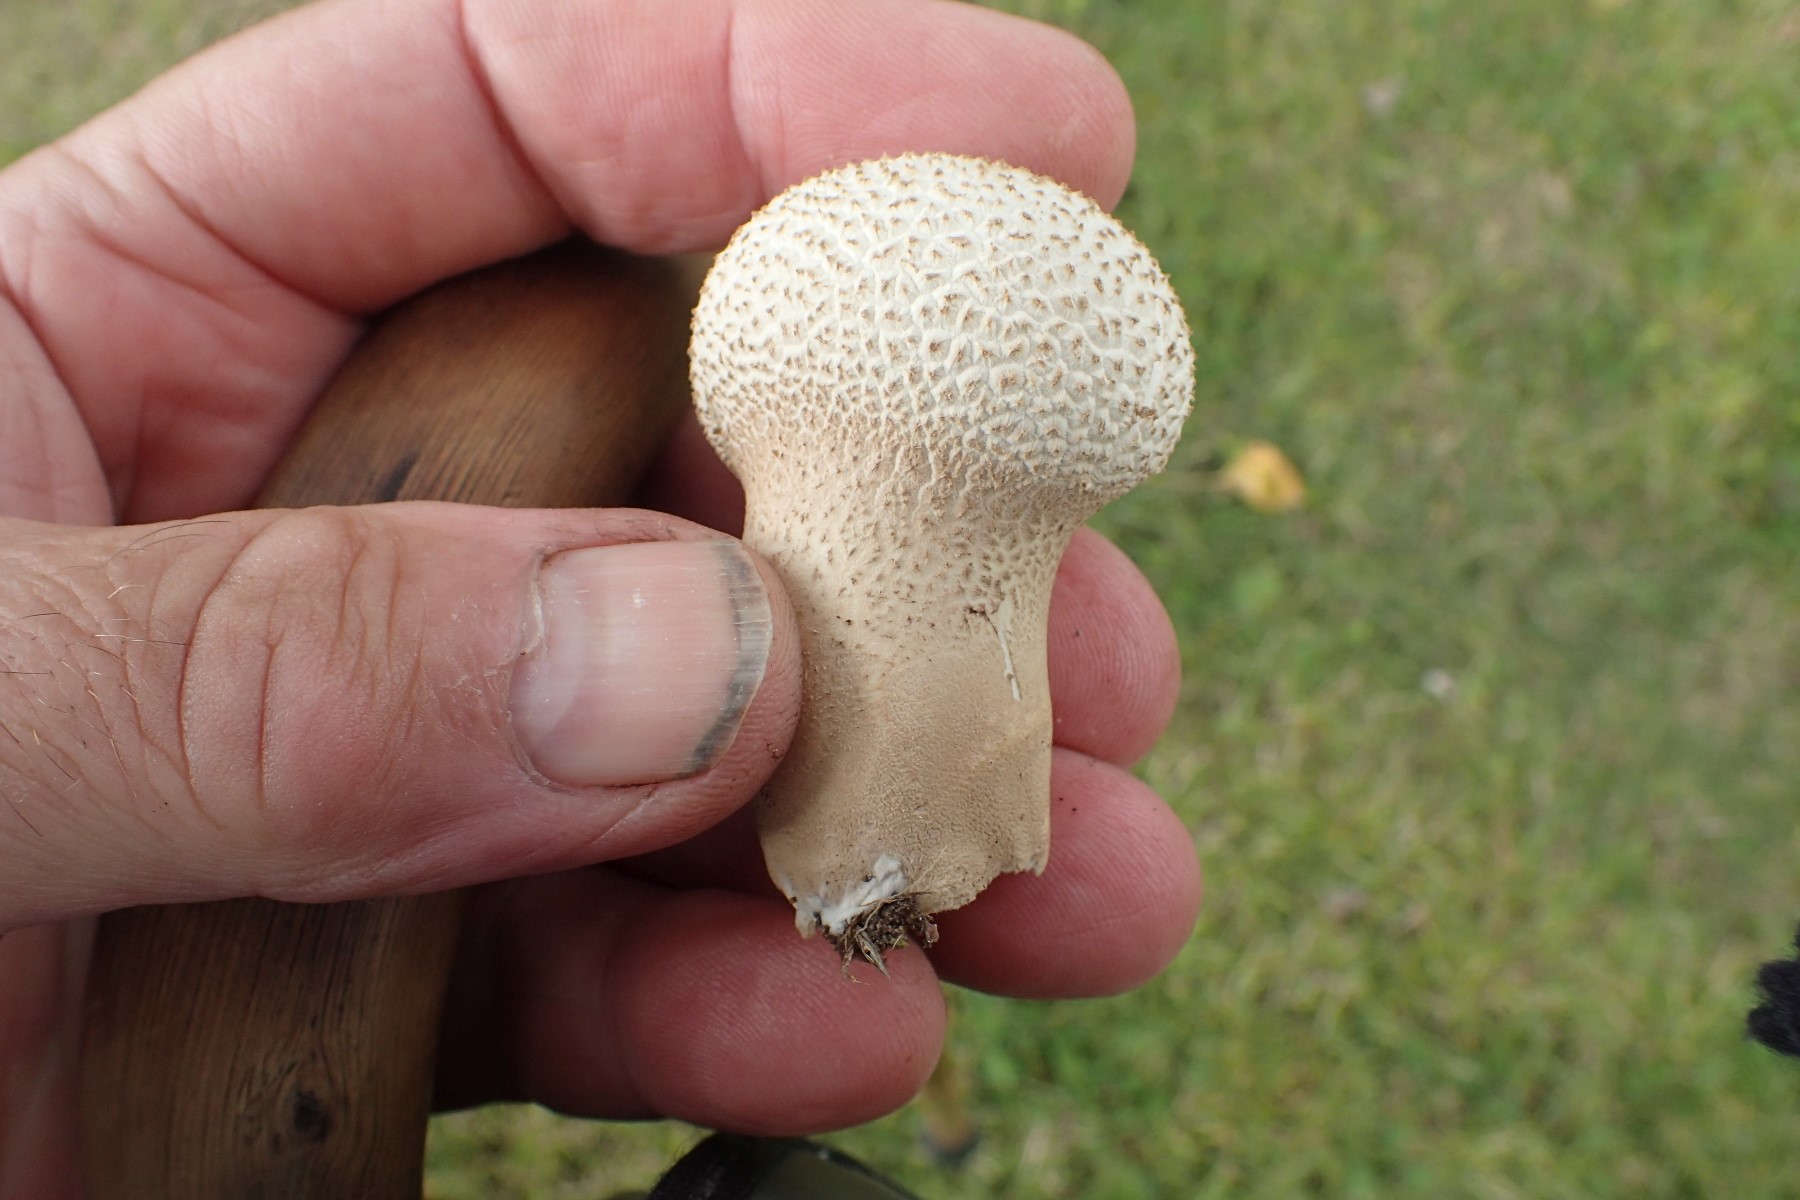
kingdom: Fungi
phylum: Basidiomycota
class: Agaricomycetes
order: Agaricales
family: Lycoperdaceae
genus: Lycoperdon
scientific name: Lycoperdon excipuliforme
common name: højstokket støvbold
